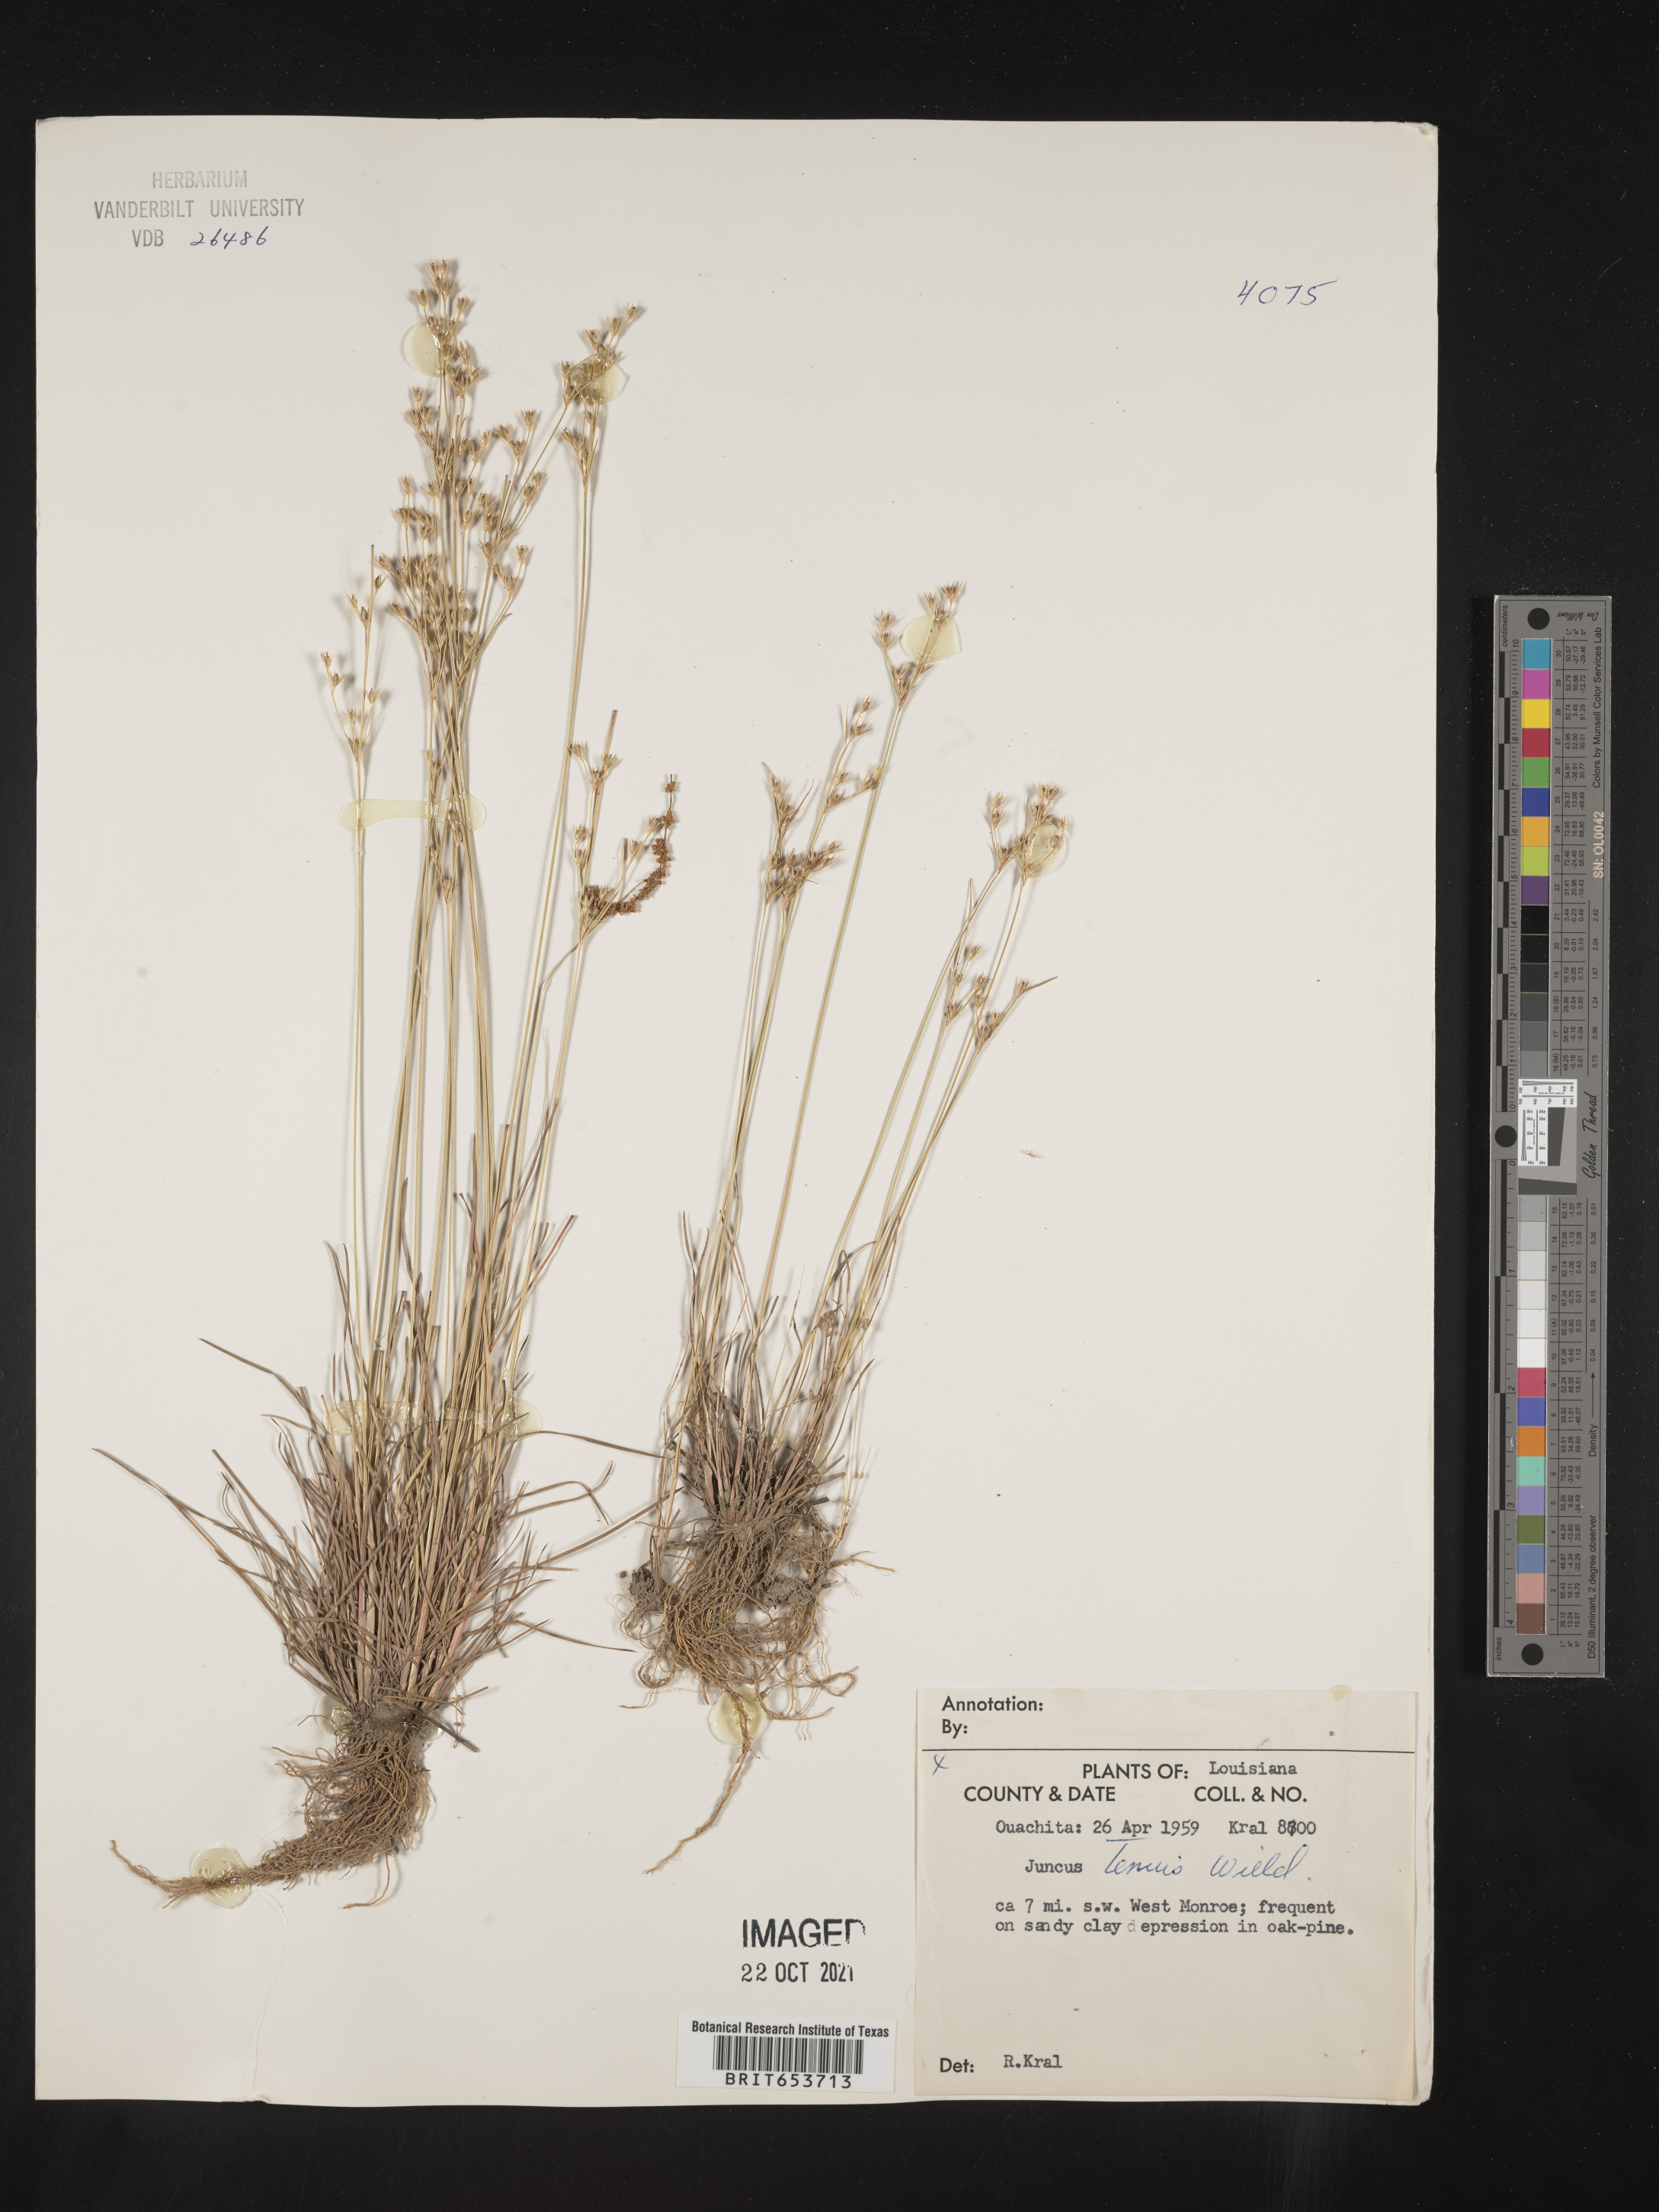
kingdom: Plantae
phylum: Tracheophyta
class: Liliopsida
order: Poales
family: Juncaceae
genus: Juncus
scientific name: Juncus tenuis
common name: Slender rush
